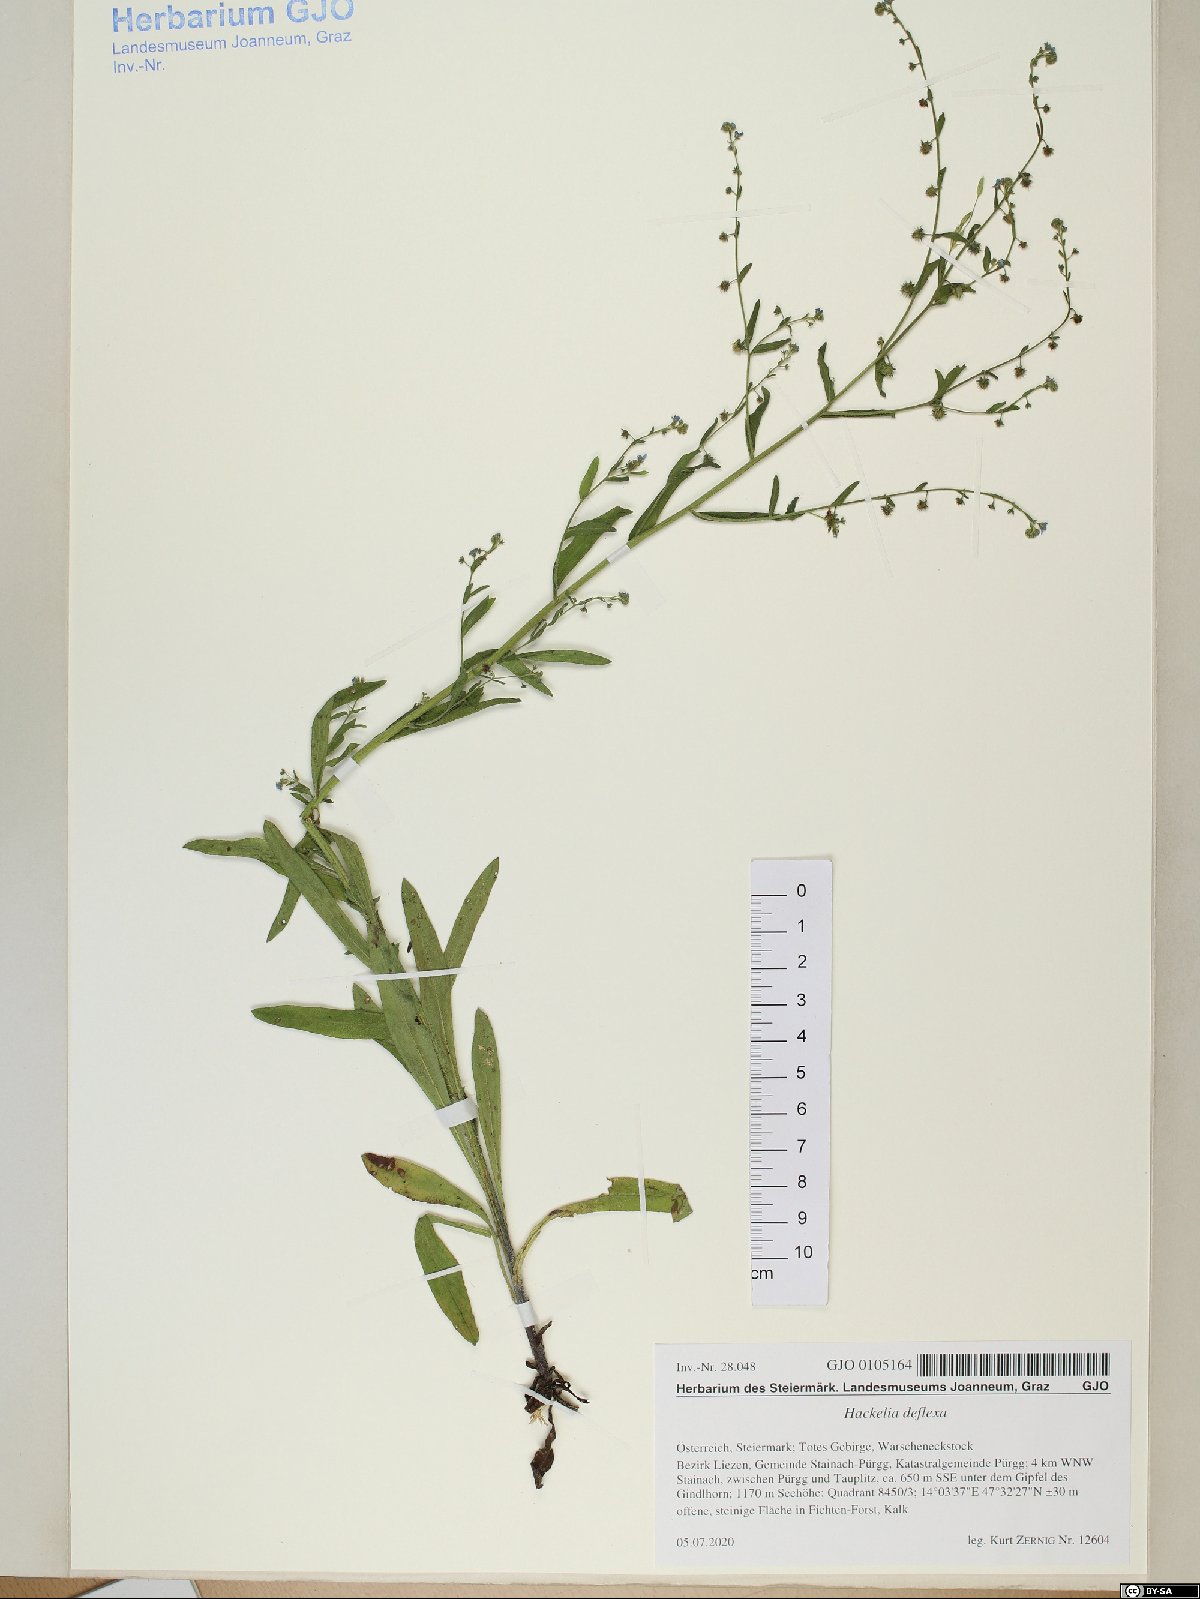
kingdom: Plantae
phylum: Tracheophyta
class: Magnoliopsida
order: Boraginales
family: Boraginaceae
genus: Hackelia
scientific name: Hackelia deflexa
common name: Nodding stickseed
